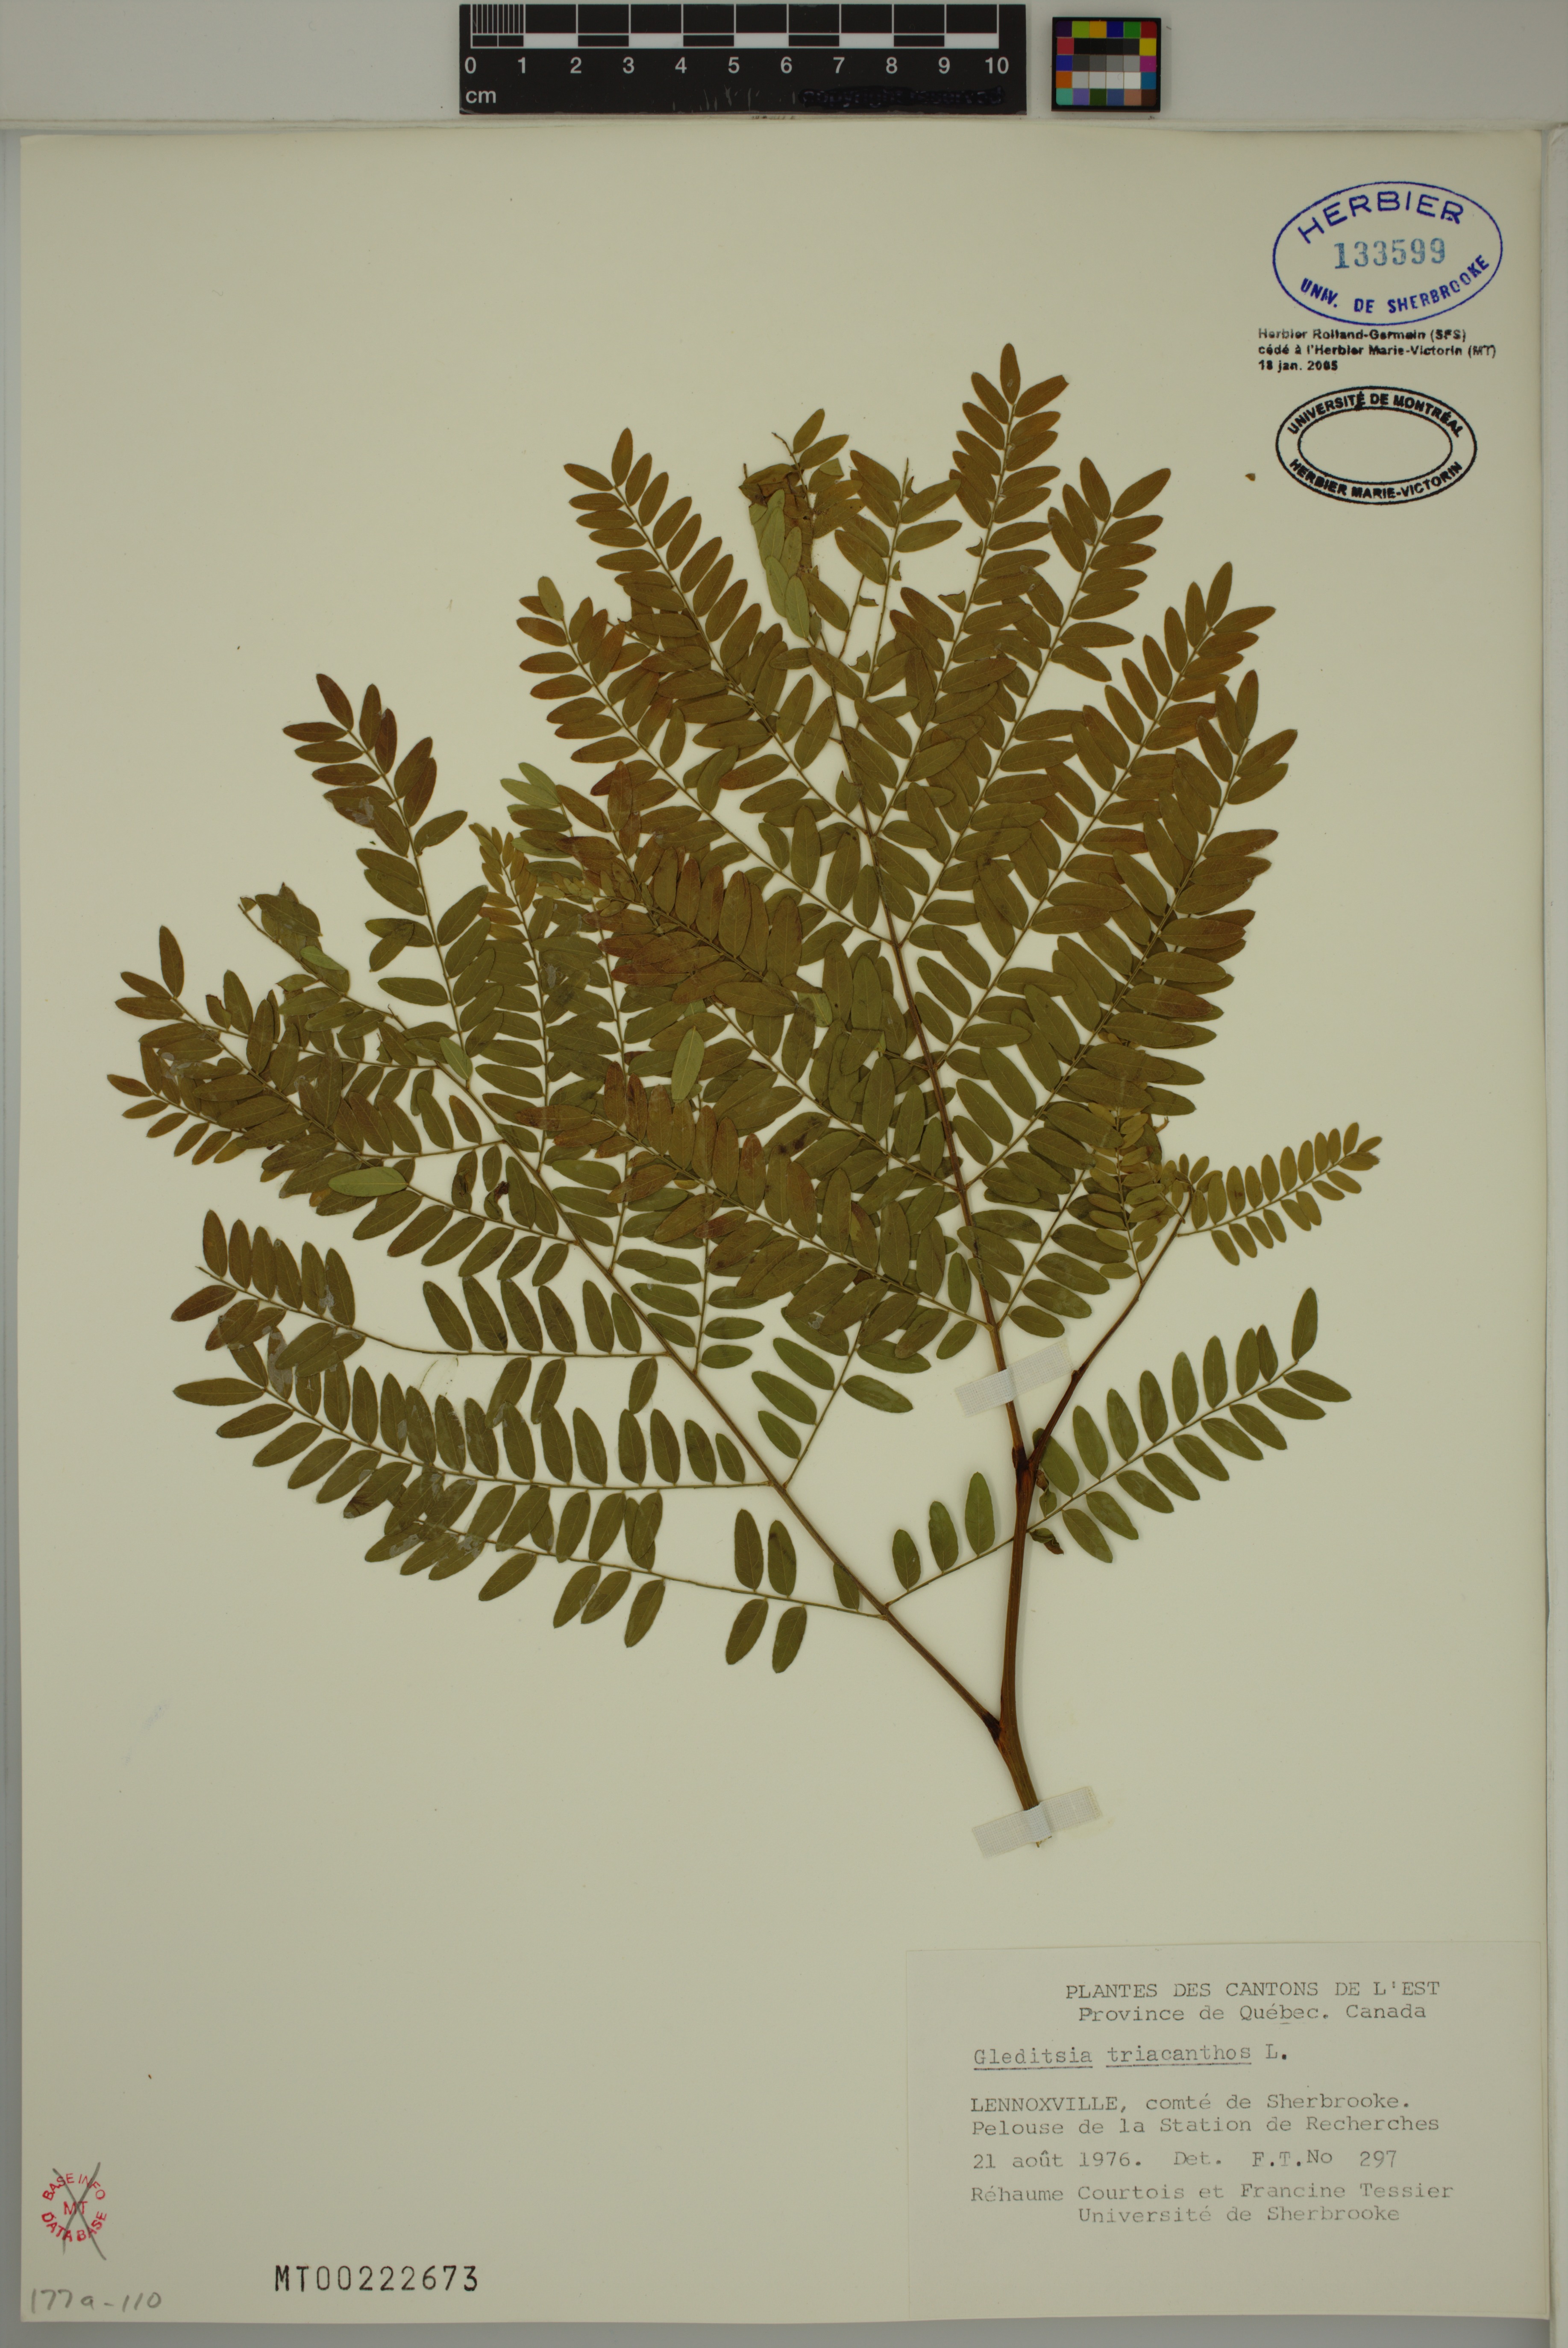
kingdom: Plantae
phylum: Tracheophyta
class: Magnoliopsida
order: Fabales
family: Fabaceae
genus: Gleditsia
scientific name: Gleditsia triacanthos
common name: Common honeylocust
